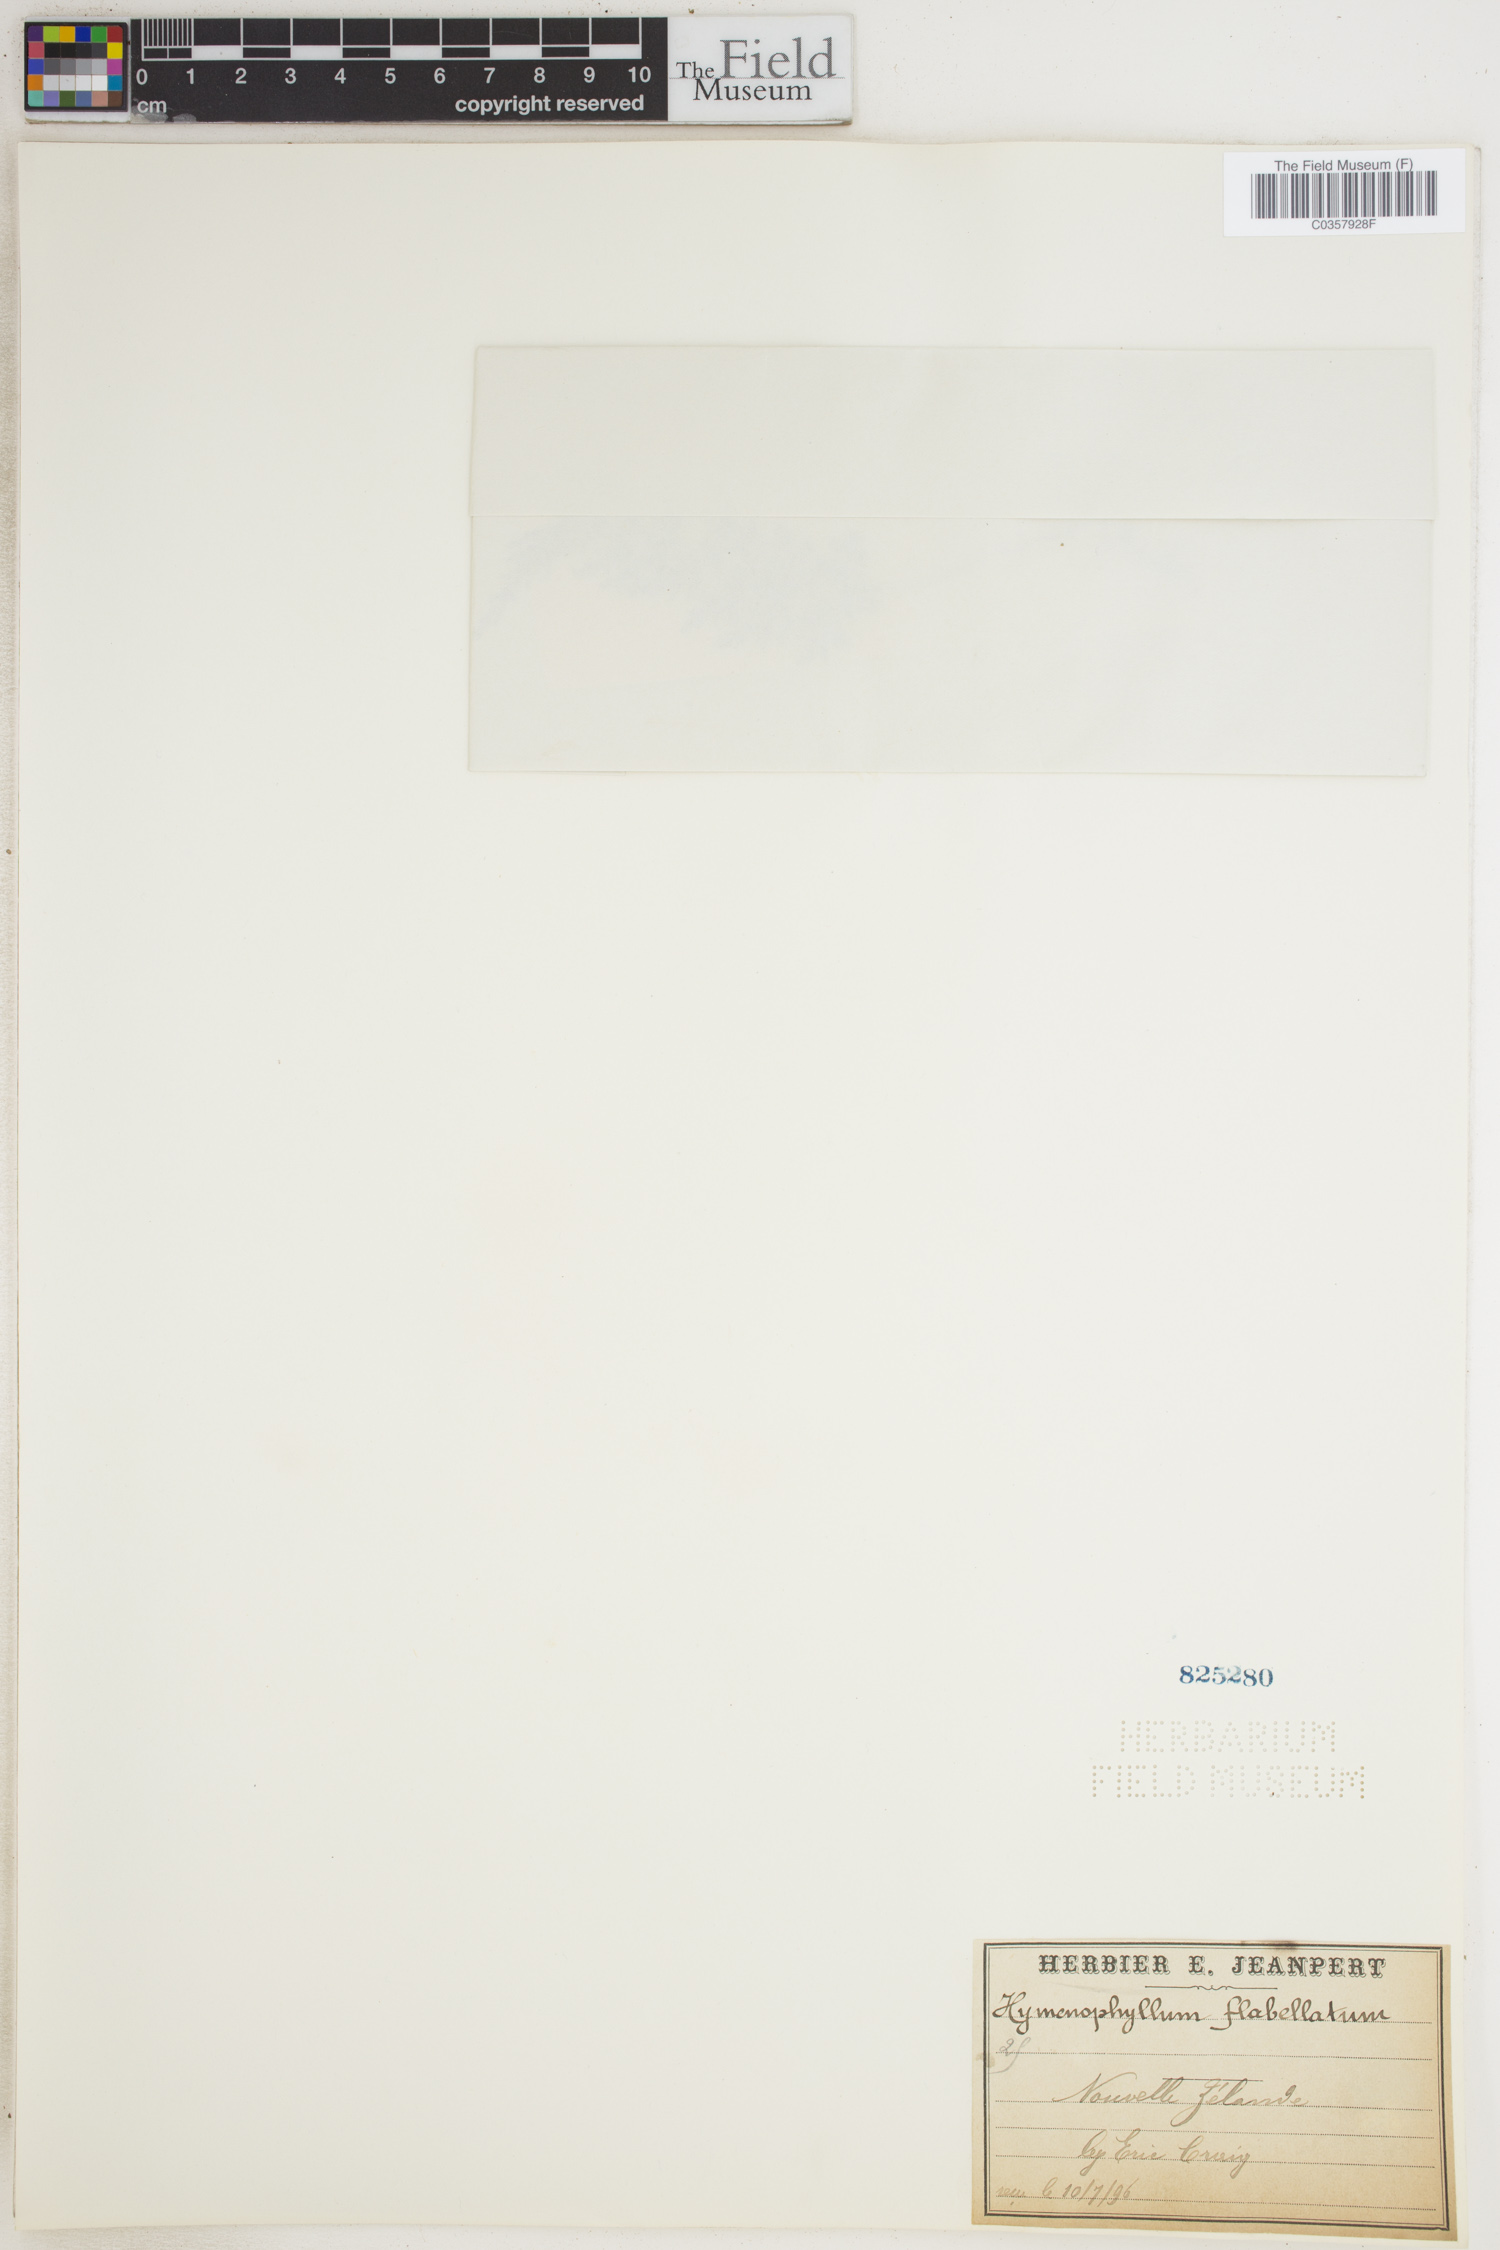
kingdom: Plantae
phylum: Tracheophyta
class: Polypodiopsida
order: Hymenophyllales
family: Hymenophyllaceae
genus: Hymenophyllum
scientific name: Hymenophyllum flabellatum
